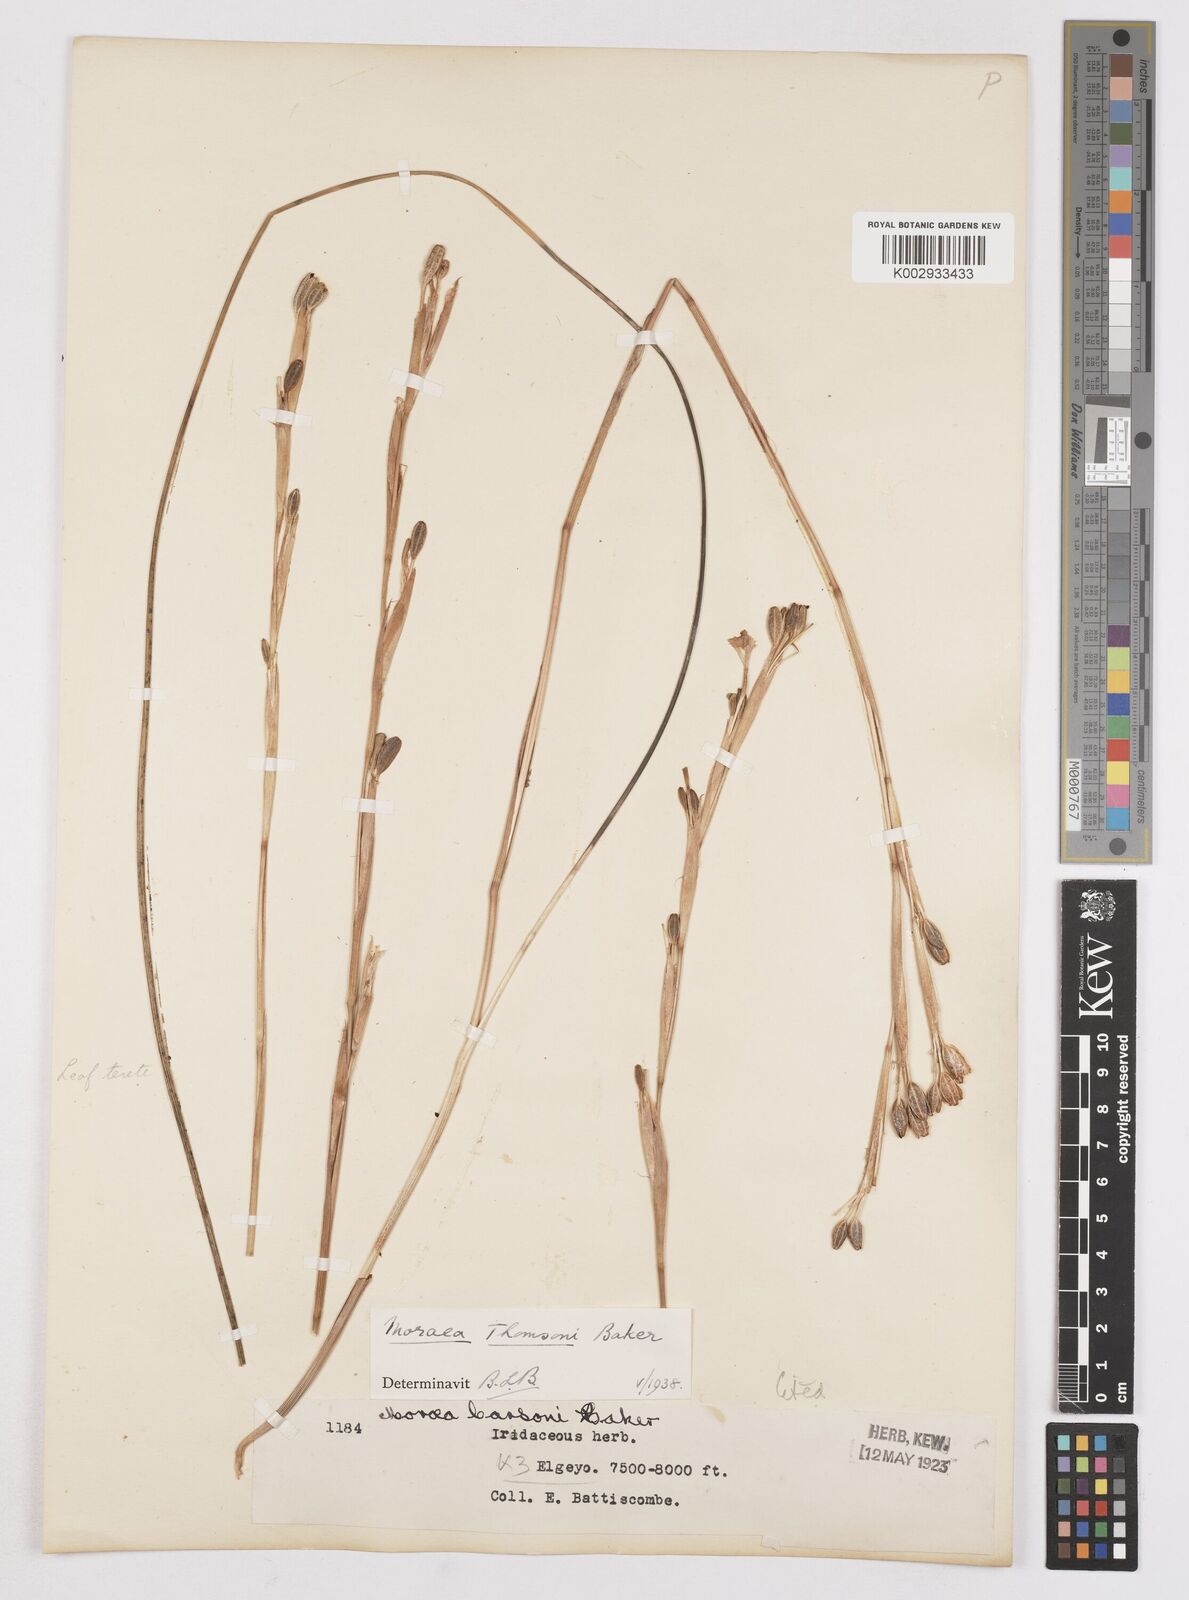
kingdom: Plantae
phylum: Tracheophyta
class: Liliopsida
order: Asparagales
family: Iridaceae
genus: Moraea
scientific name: Moraea thomsonii
